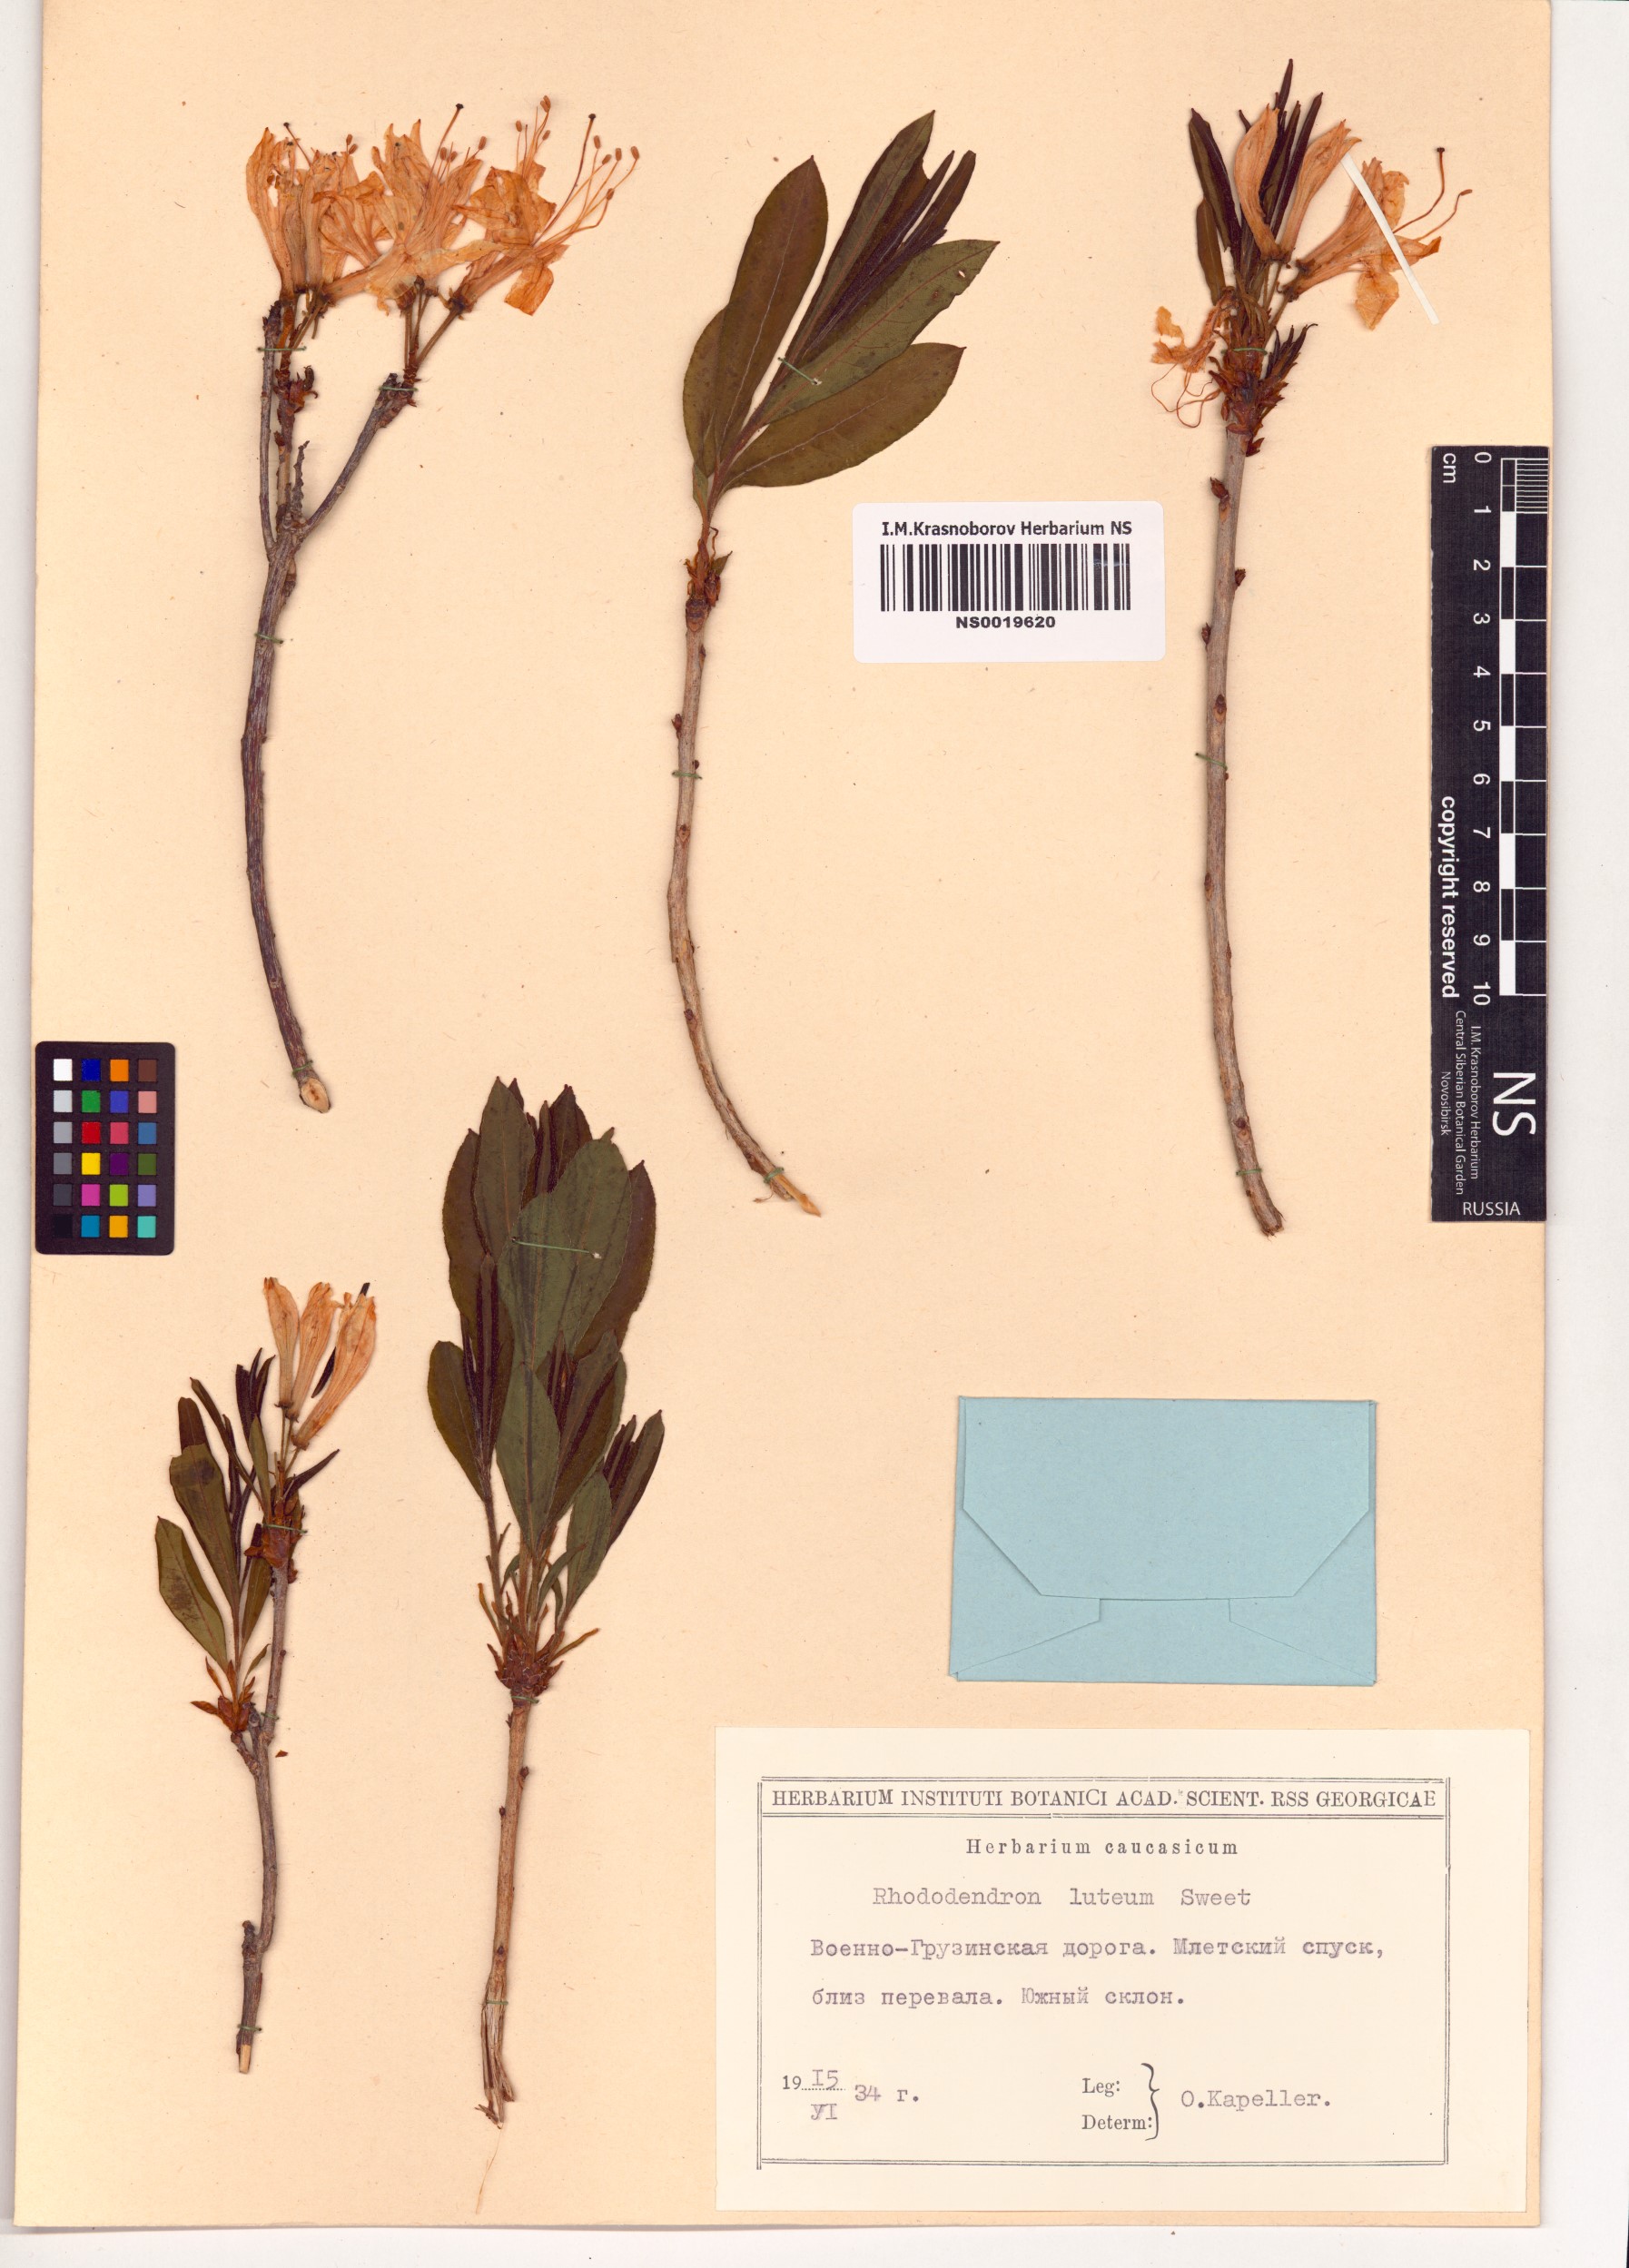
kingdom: Plantae
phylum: Tracheophyta
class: Magnoliopsida
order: Ericales
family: Ericaceae
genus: Rhododendron
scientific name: Rhododendron luteum
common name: Yellow azalea
